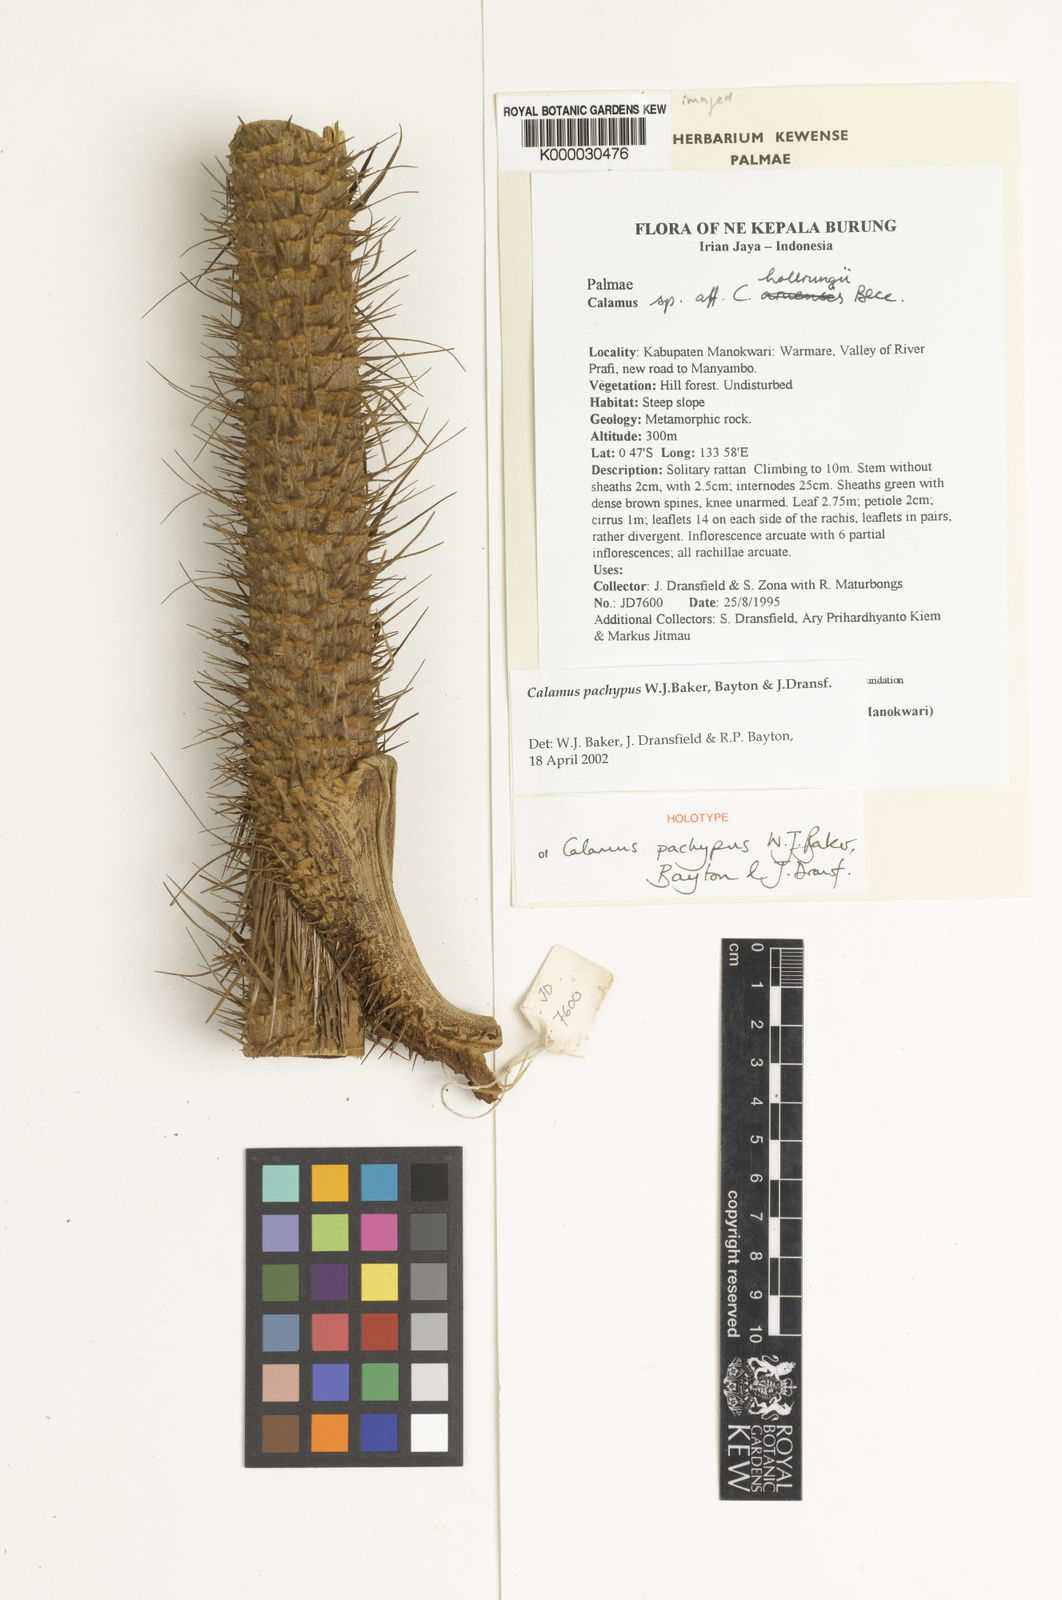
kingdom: Plantae
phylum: Tracheophyta
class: Liliopsida
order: Arecales
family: Arecaceae
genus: Calamus
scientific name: Calamus vitiensis
